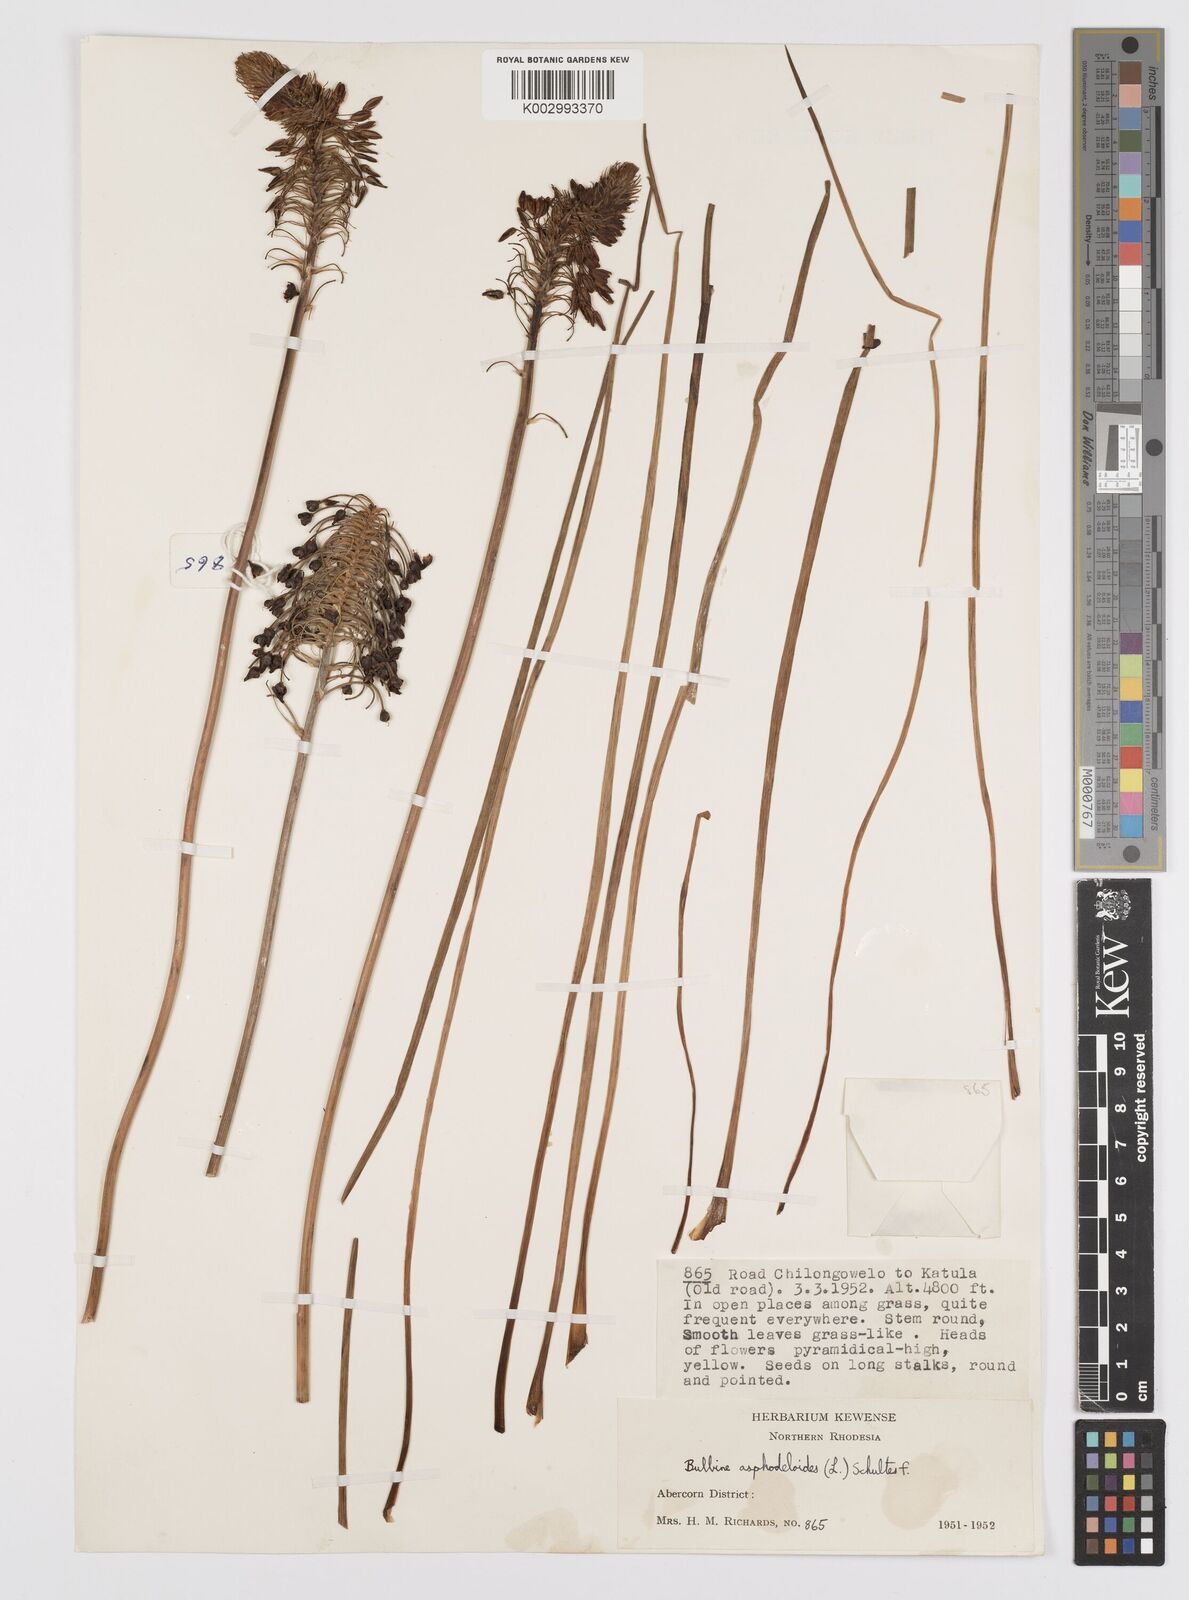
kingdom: Plantae
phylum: Tracheophyta
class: Liliopsida
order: Asparagales
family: Asphodelaceae
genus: Bulbine
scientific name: Bulbine abyssinica
